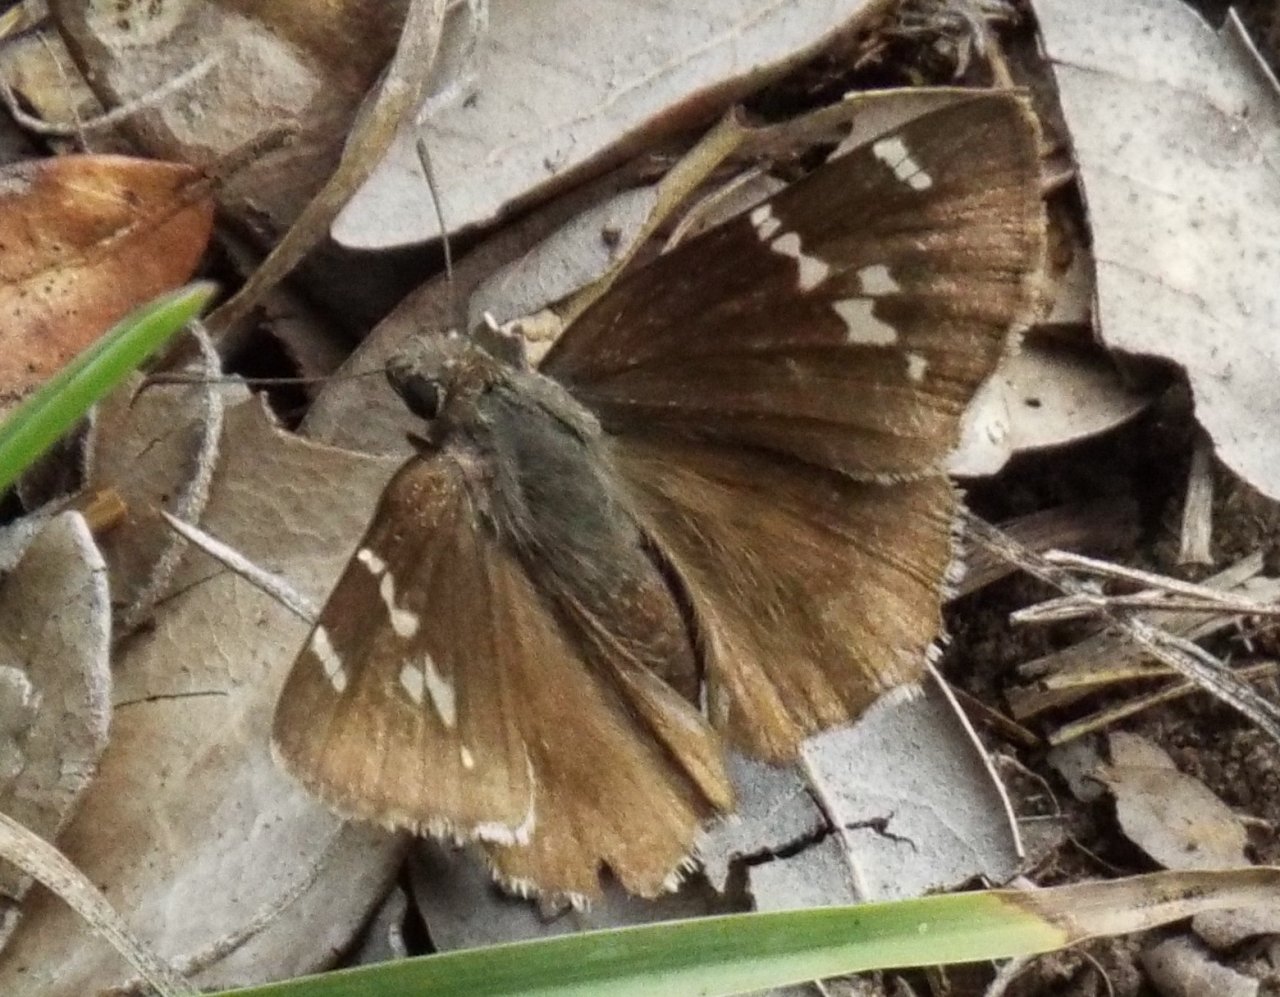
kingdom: Animalia
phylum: Arthropoda
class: Insecta
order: Lepidoptera
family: Hesperiidae
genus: Autochton
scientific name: Autochton
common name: Southern Cloudywing
